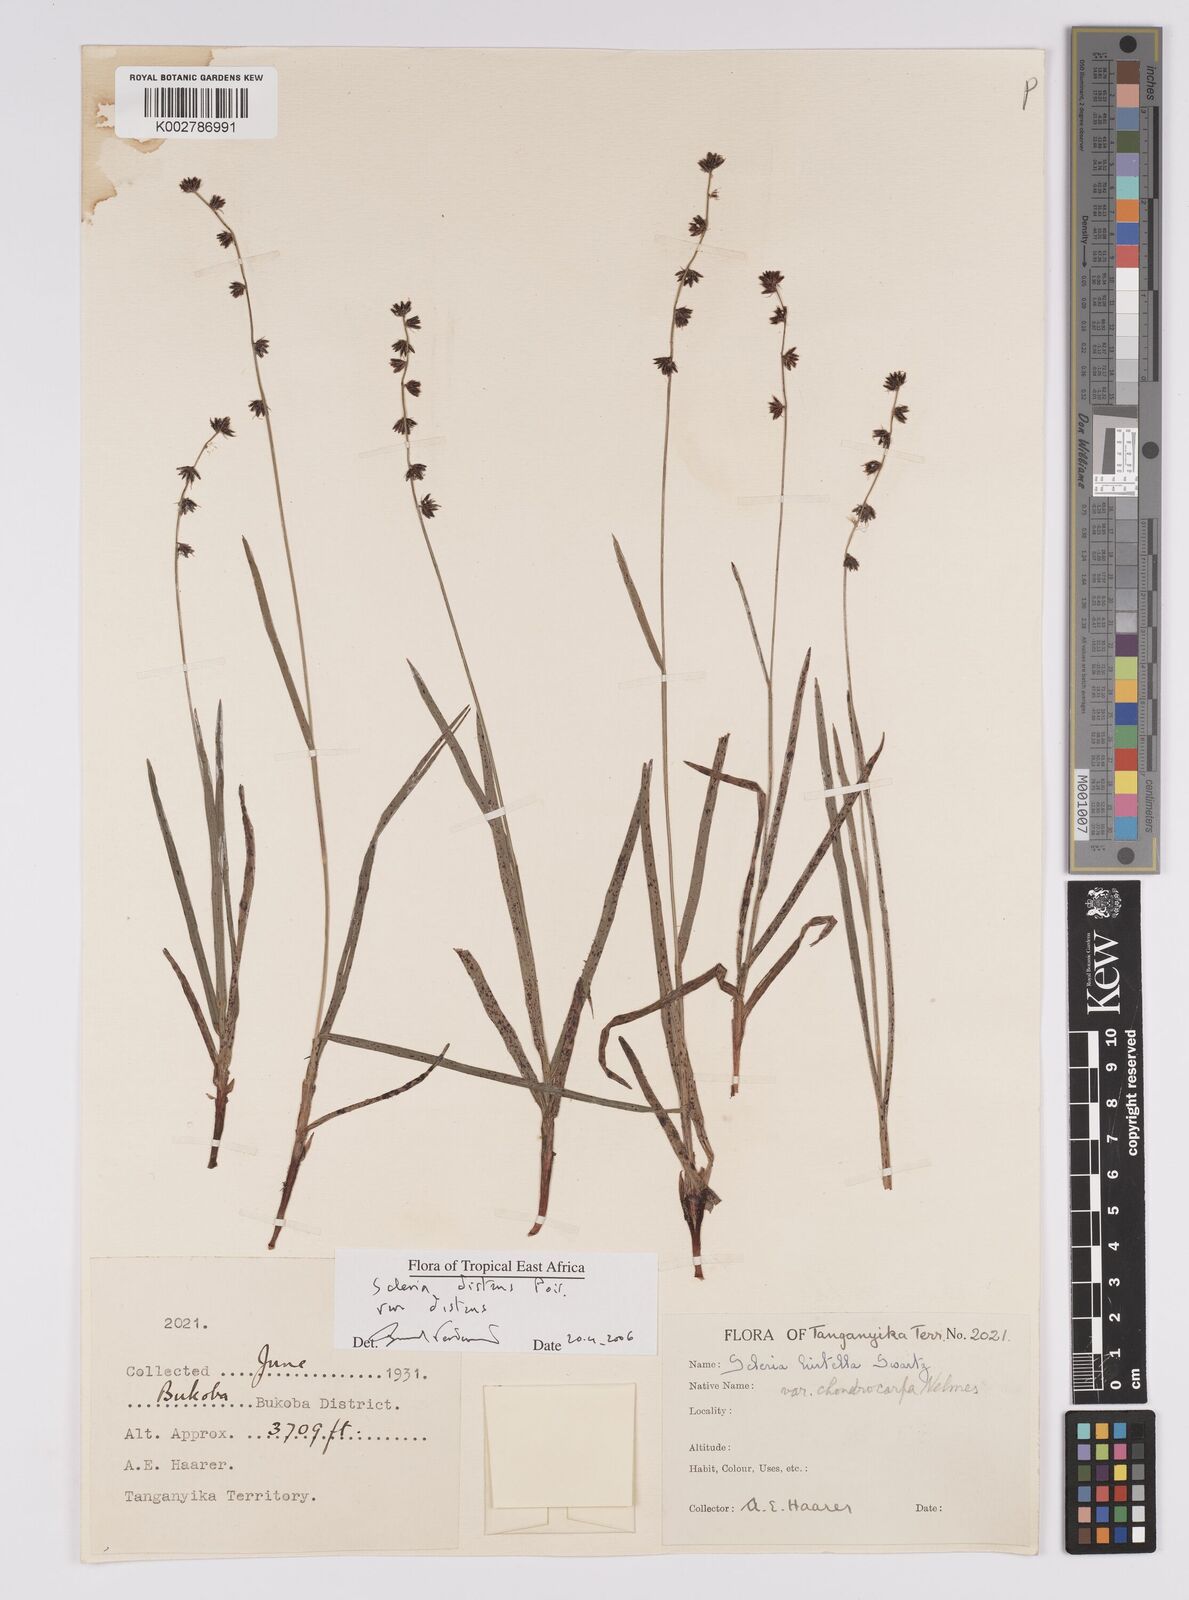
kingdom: Plantae
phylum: Tracheophyta
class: Liliopsida
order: Poales
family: Cyperaceae
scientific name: Cyperaceae
